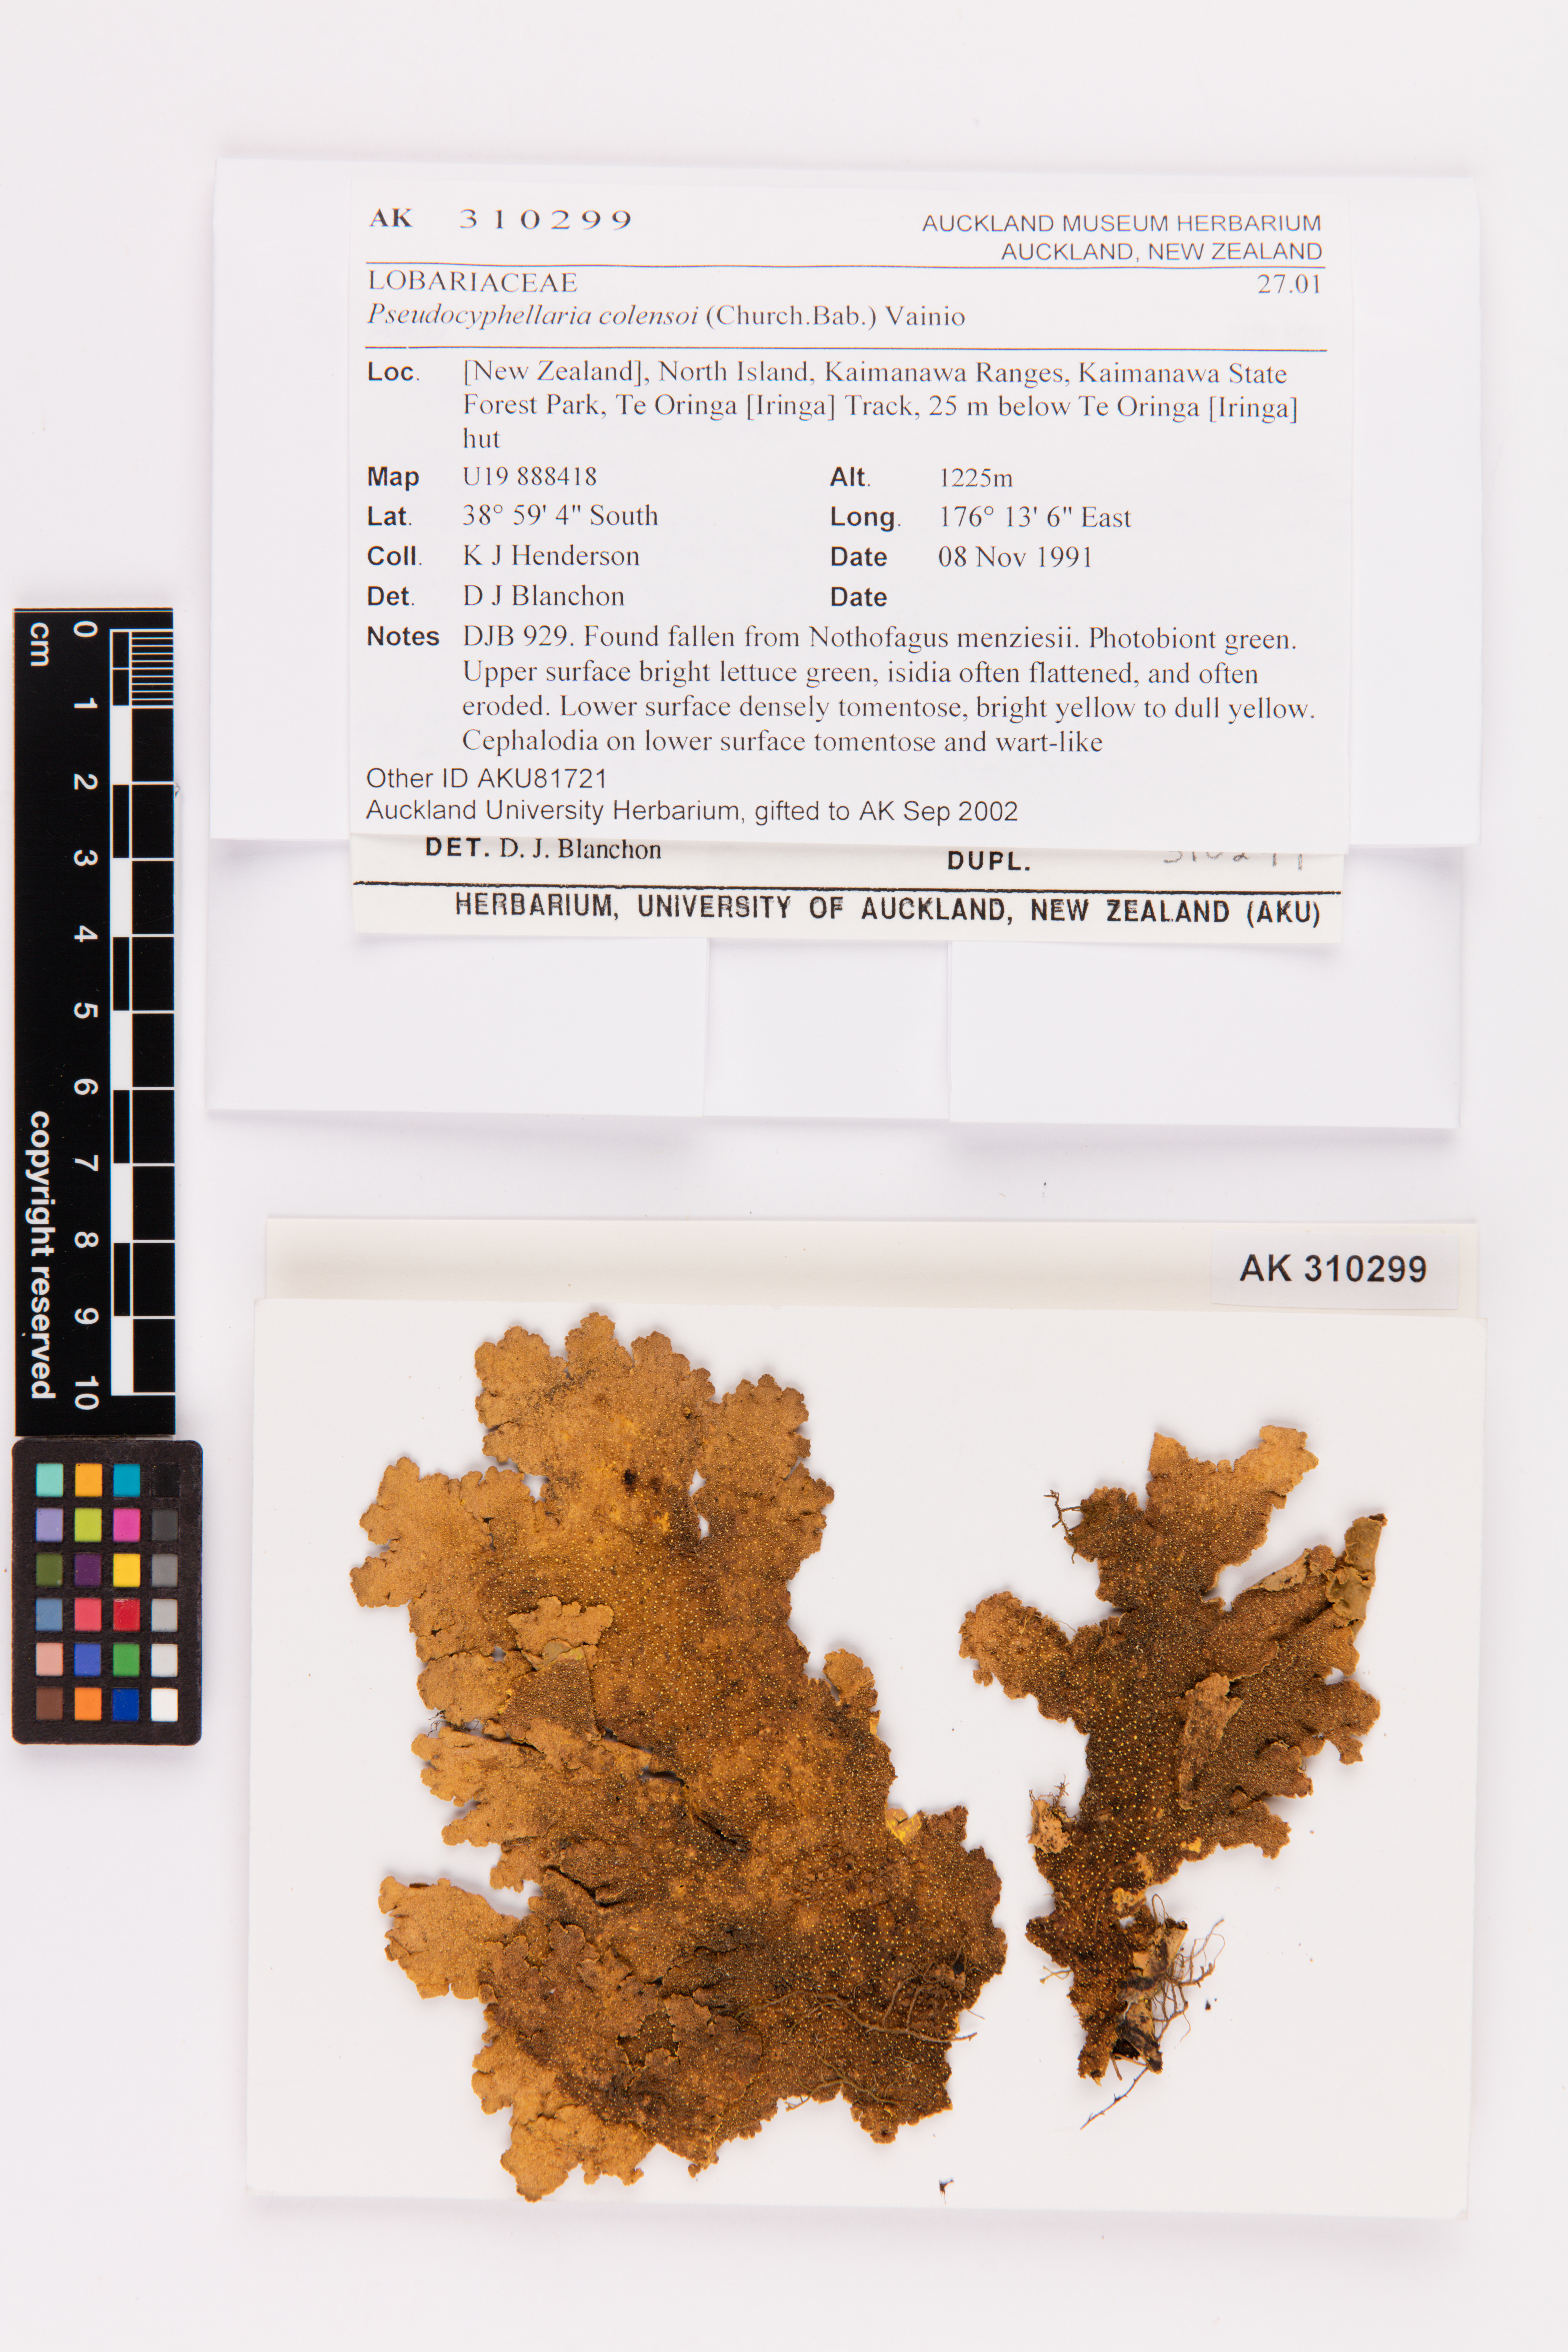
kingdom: Fungi
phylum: Ascomycota
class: Lecanoromycetes
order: Peltigerales
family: Lobariaceae
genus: Yarrumia
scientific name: Yarrumia colensoi
